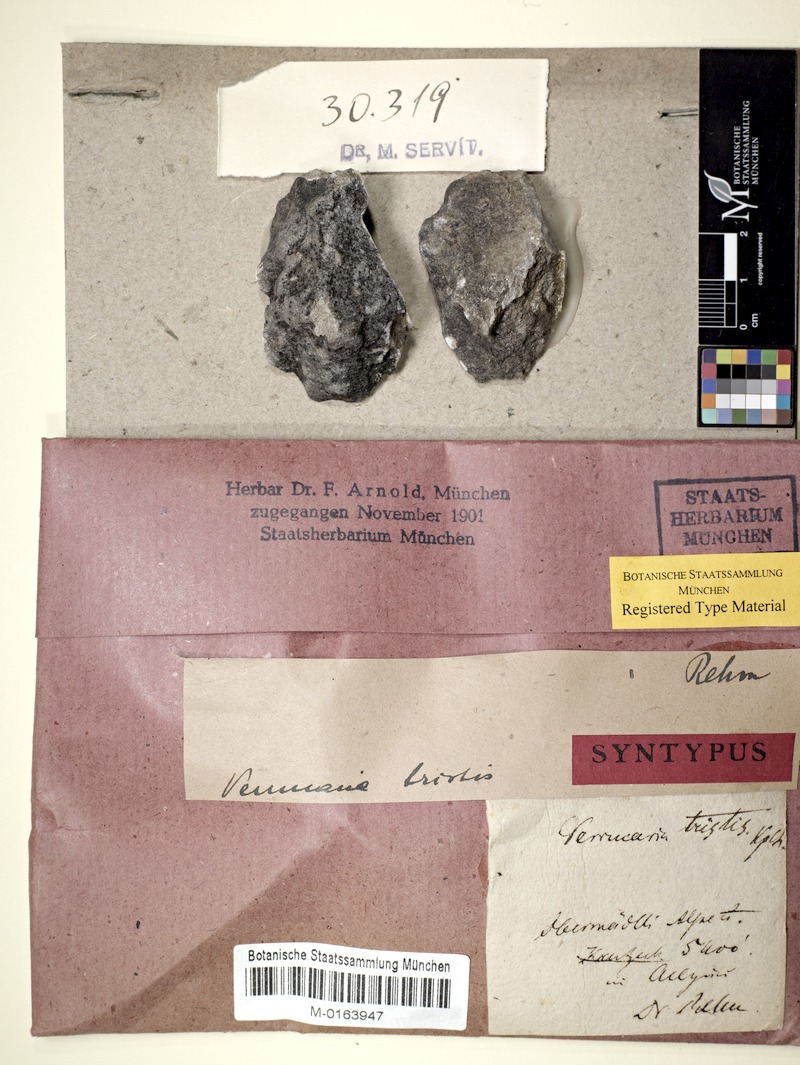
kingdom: Fungi
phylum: Ascomycota
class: Eurotiomycetes
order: Verrucariales
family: Verrucariaceae
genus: Verrucaria
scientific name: Verrucaria Lithocia tristis
